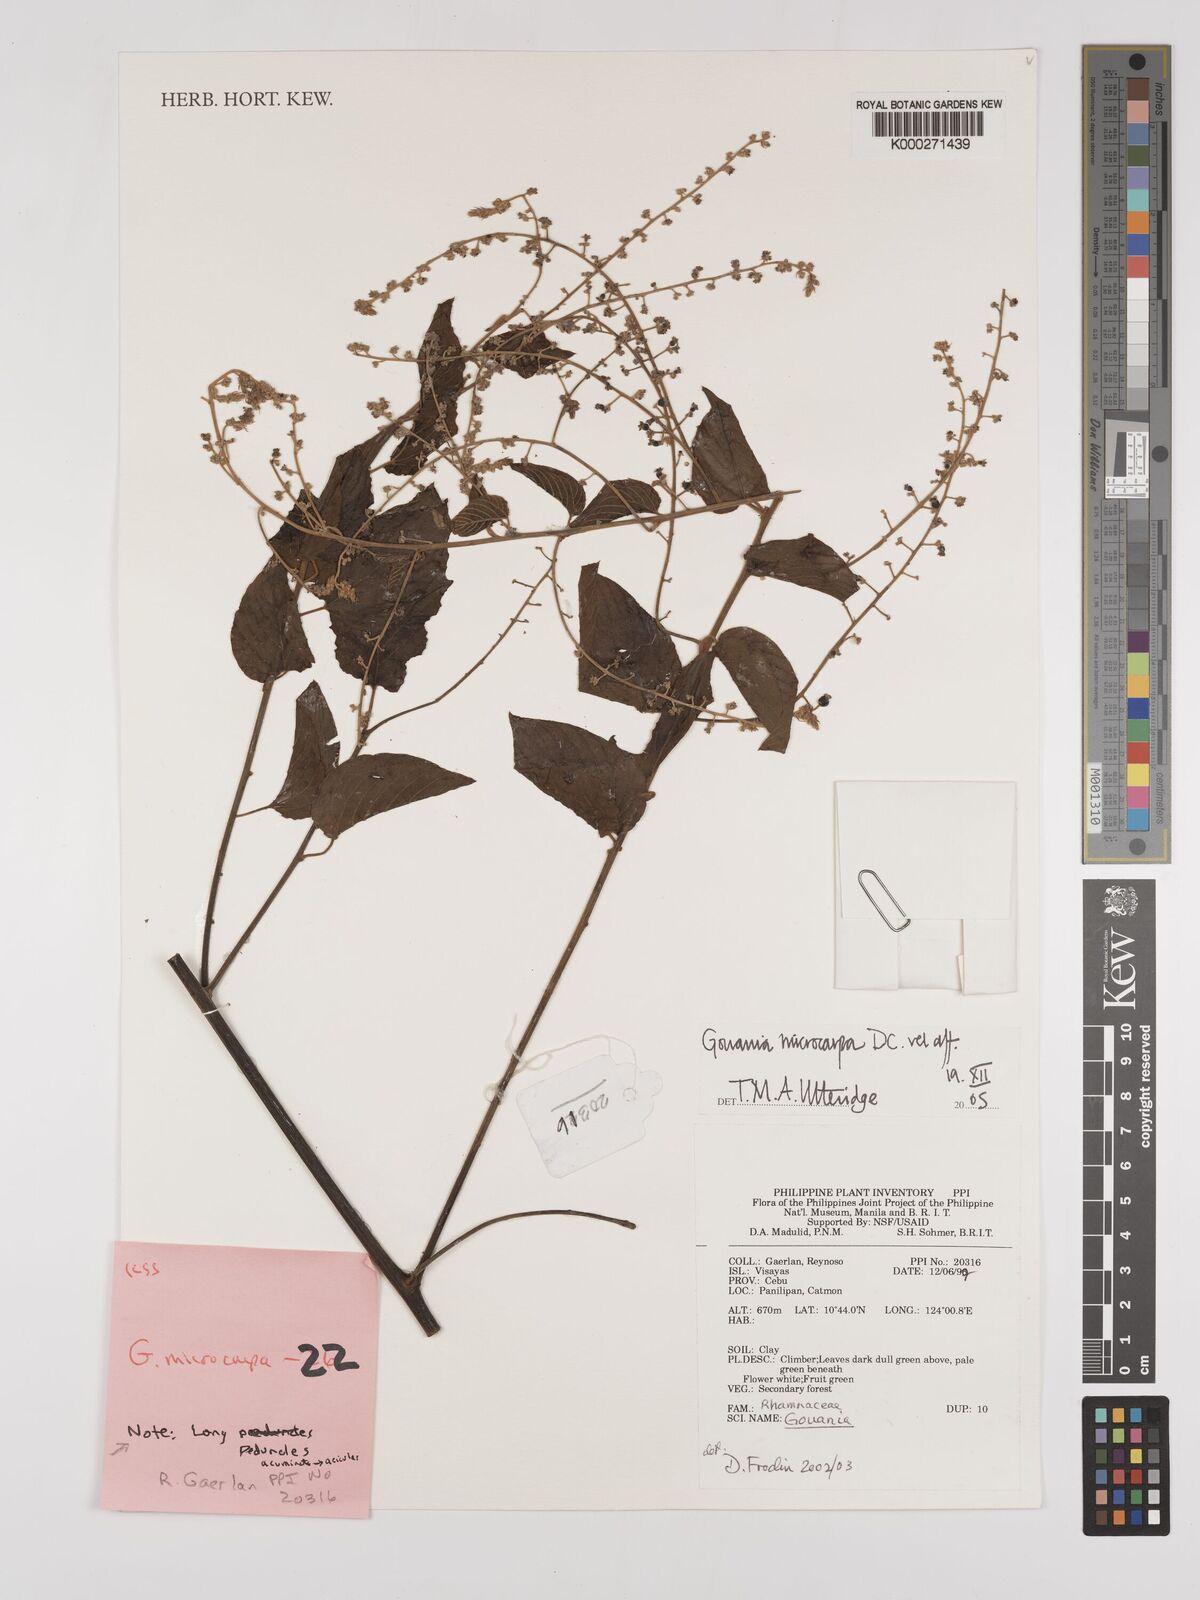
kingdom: Plantae
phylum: Tracheophyta
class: Magnoliopsida
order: Rosales
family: Rhamnaceae
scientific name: Rhamnaceae
